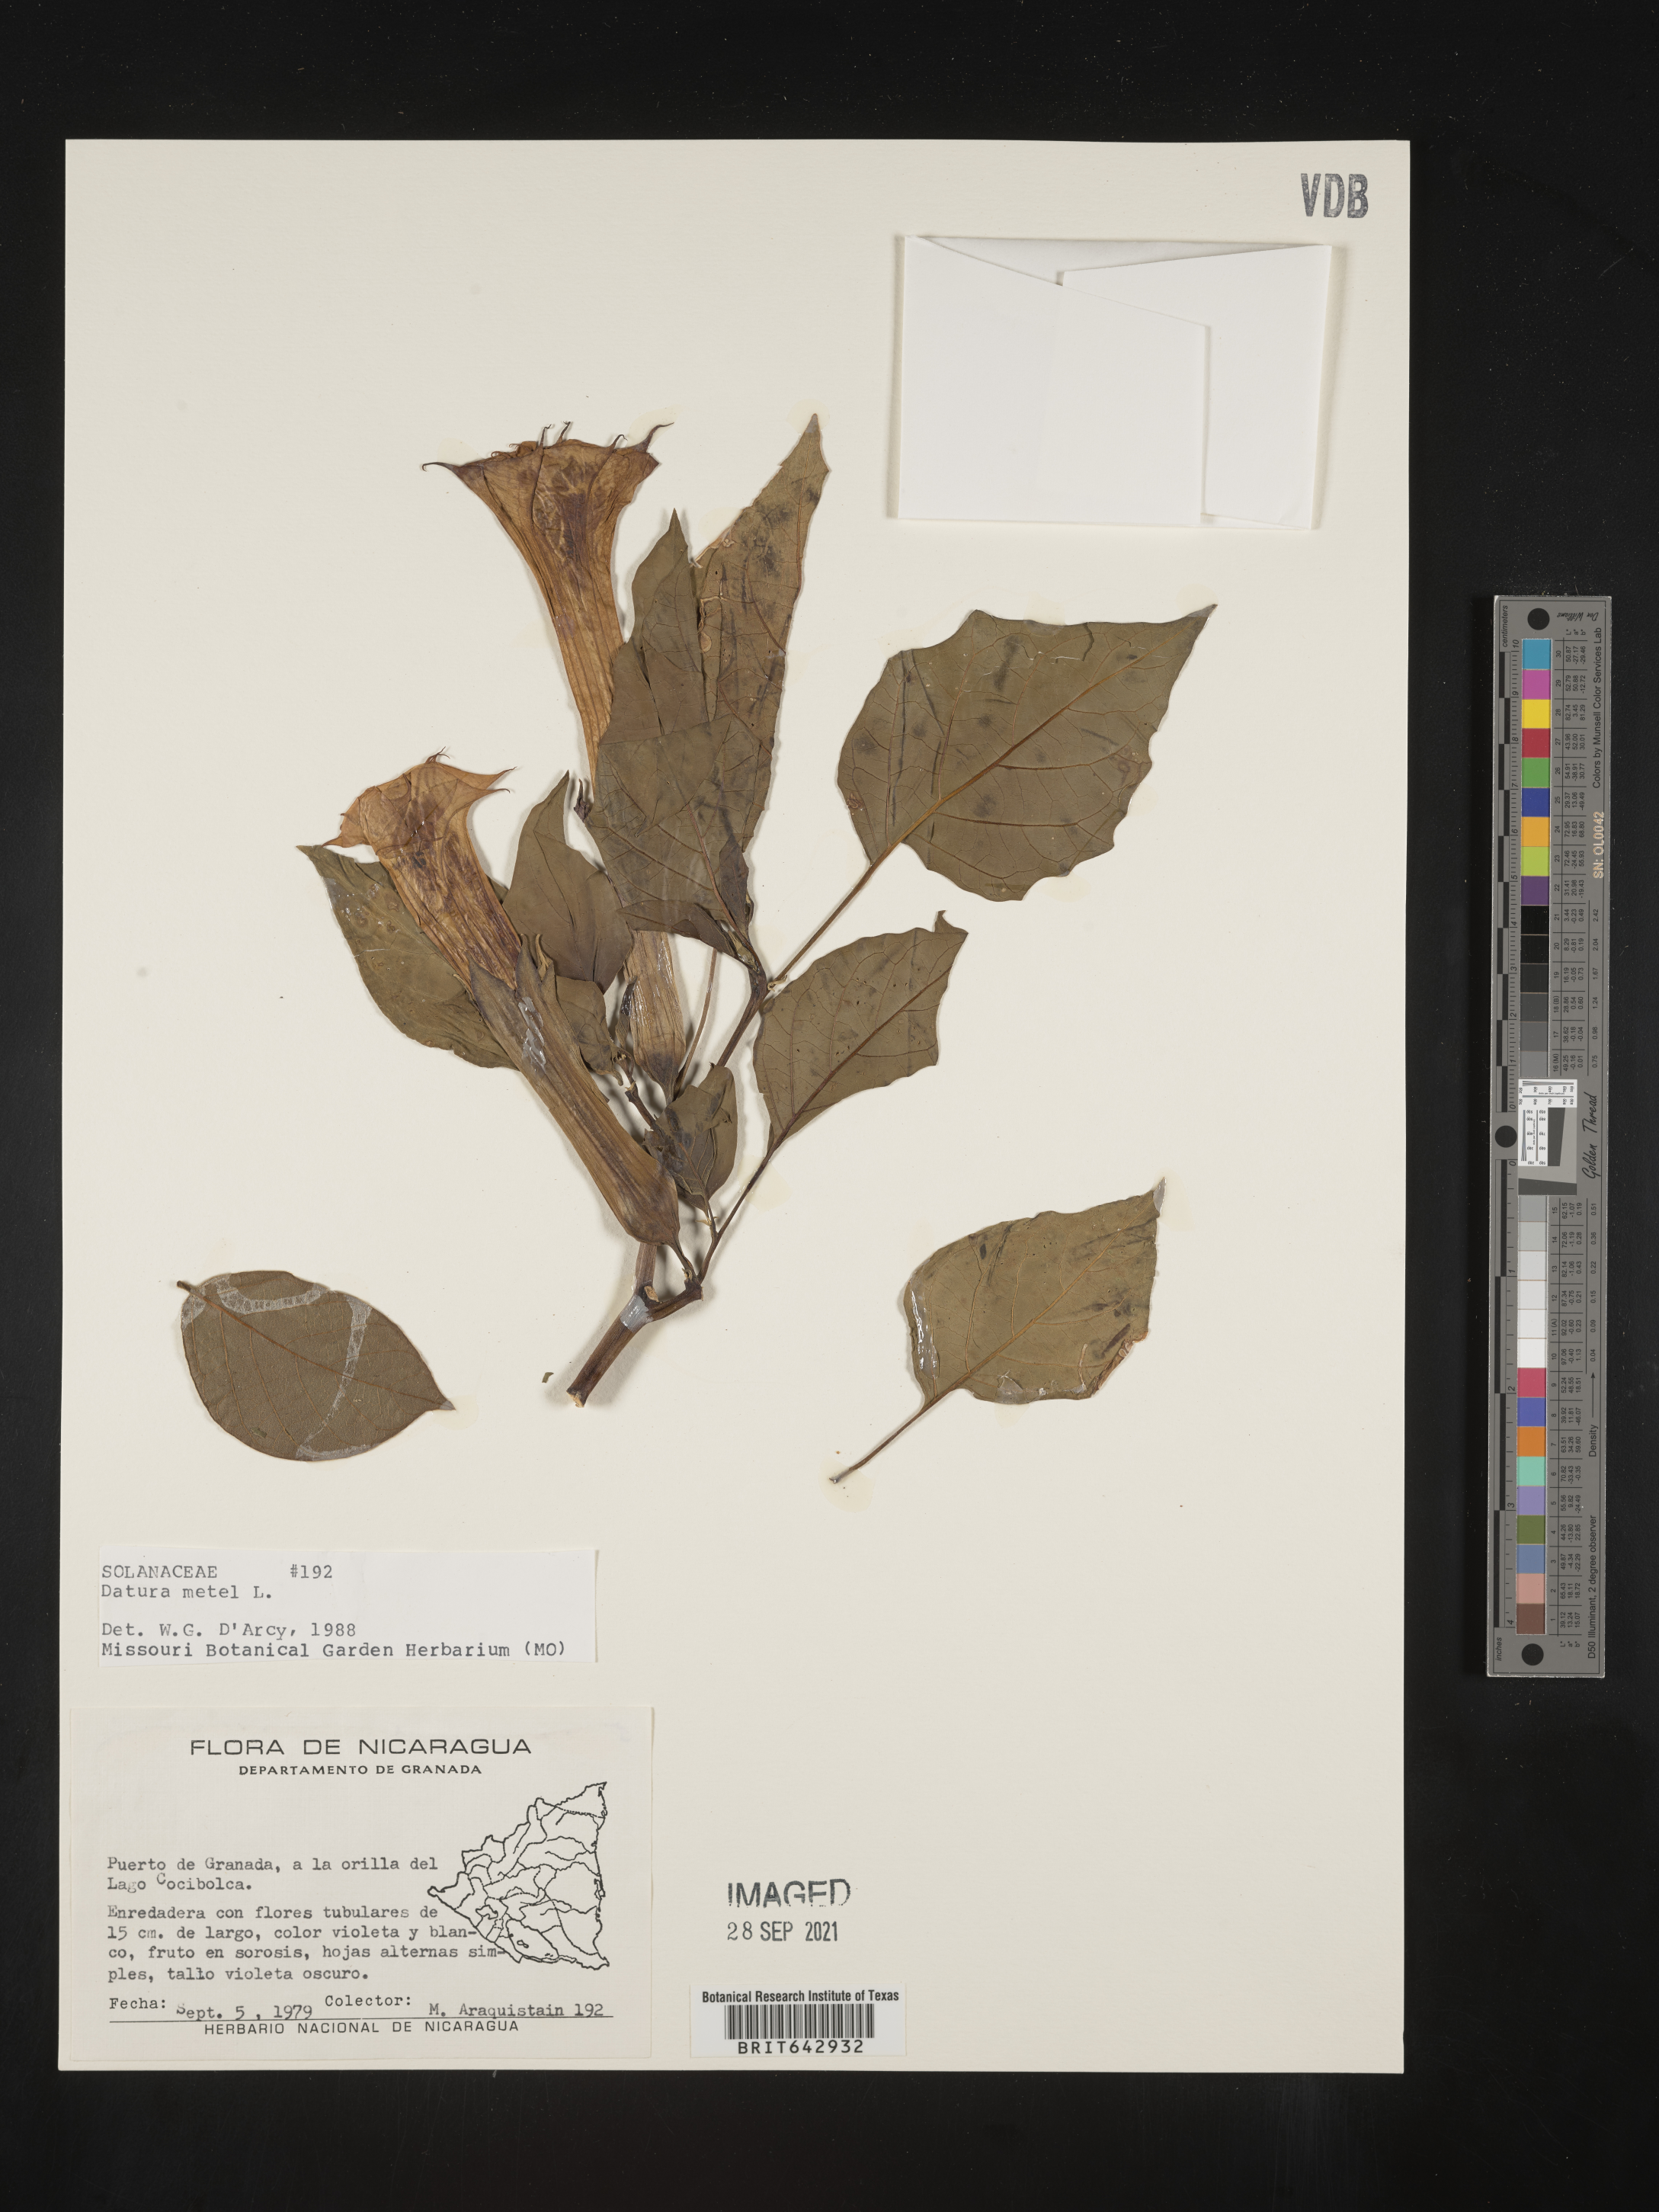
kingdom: Plantae
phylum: Tracheophyta
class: Magnoliopsida
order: Solanales
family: Solanaceae
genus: Datura
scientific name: Datura
